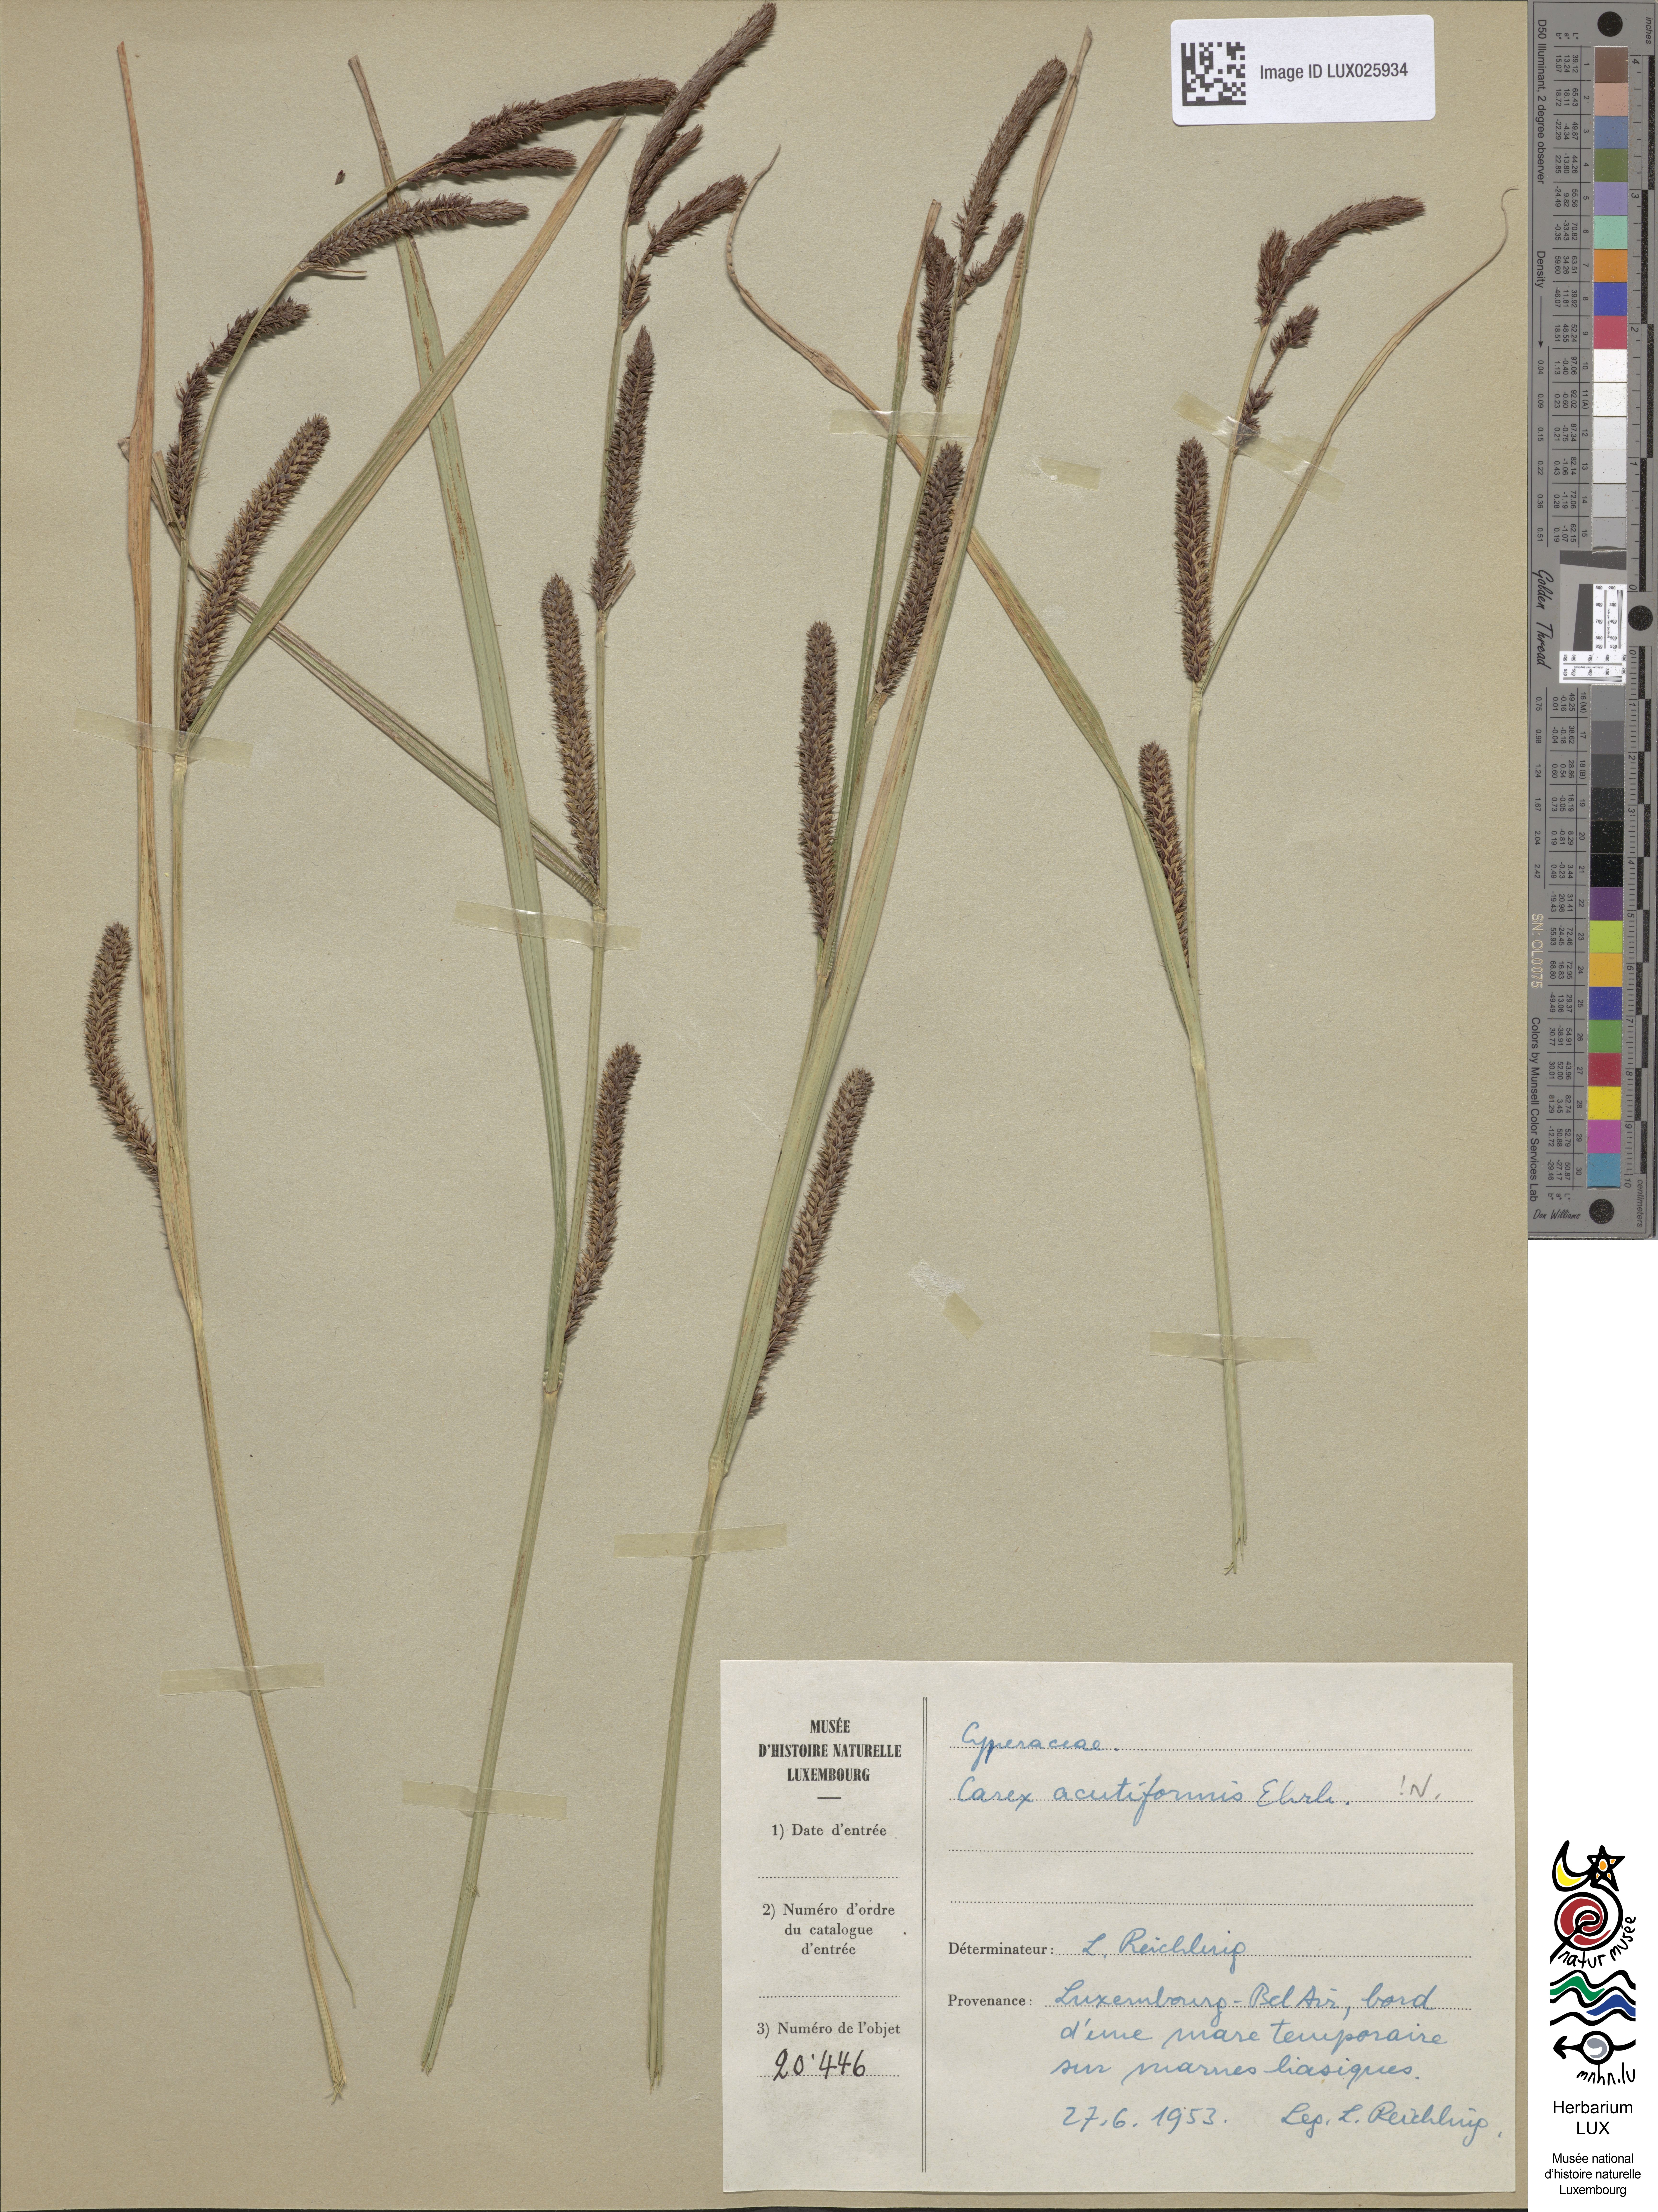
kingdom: Plantae
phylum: Tracheophyta
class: Liliopsida
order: Poales
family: Cyperaceae
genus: Carex
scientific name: Carex acutiformis
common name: Lesser pond-sedge
